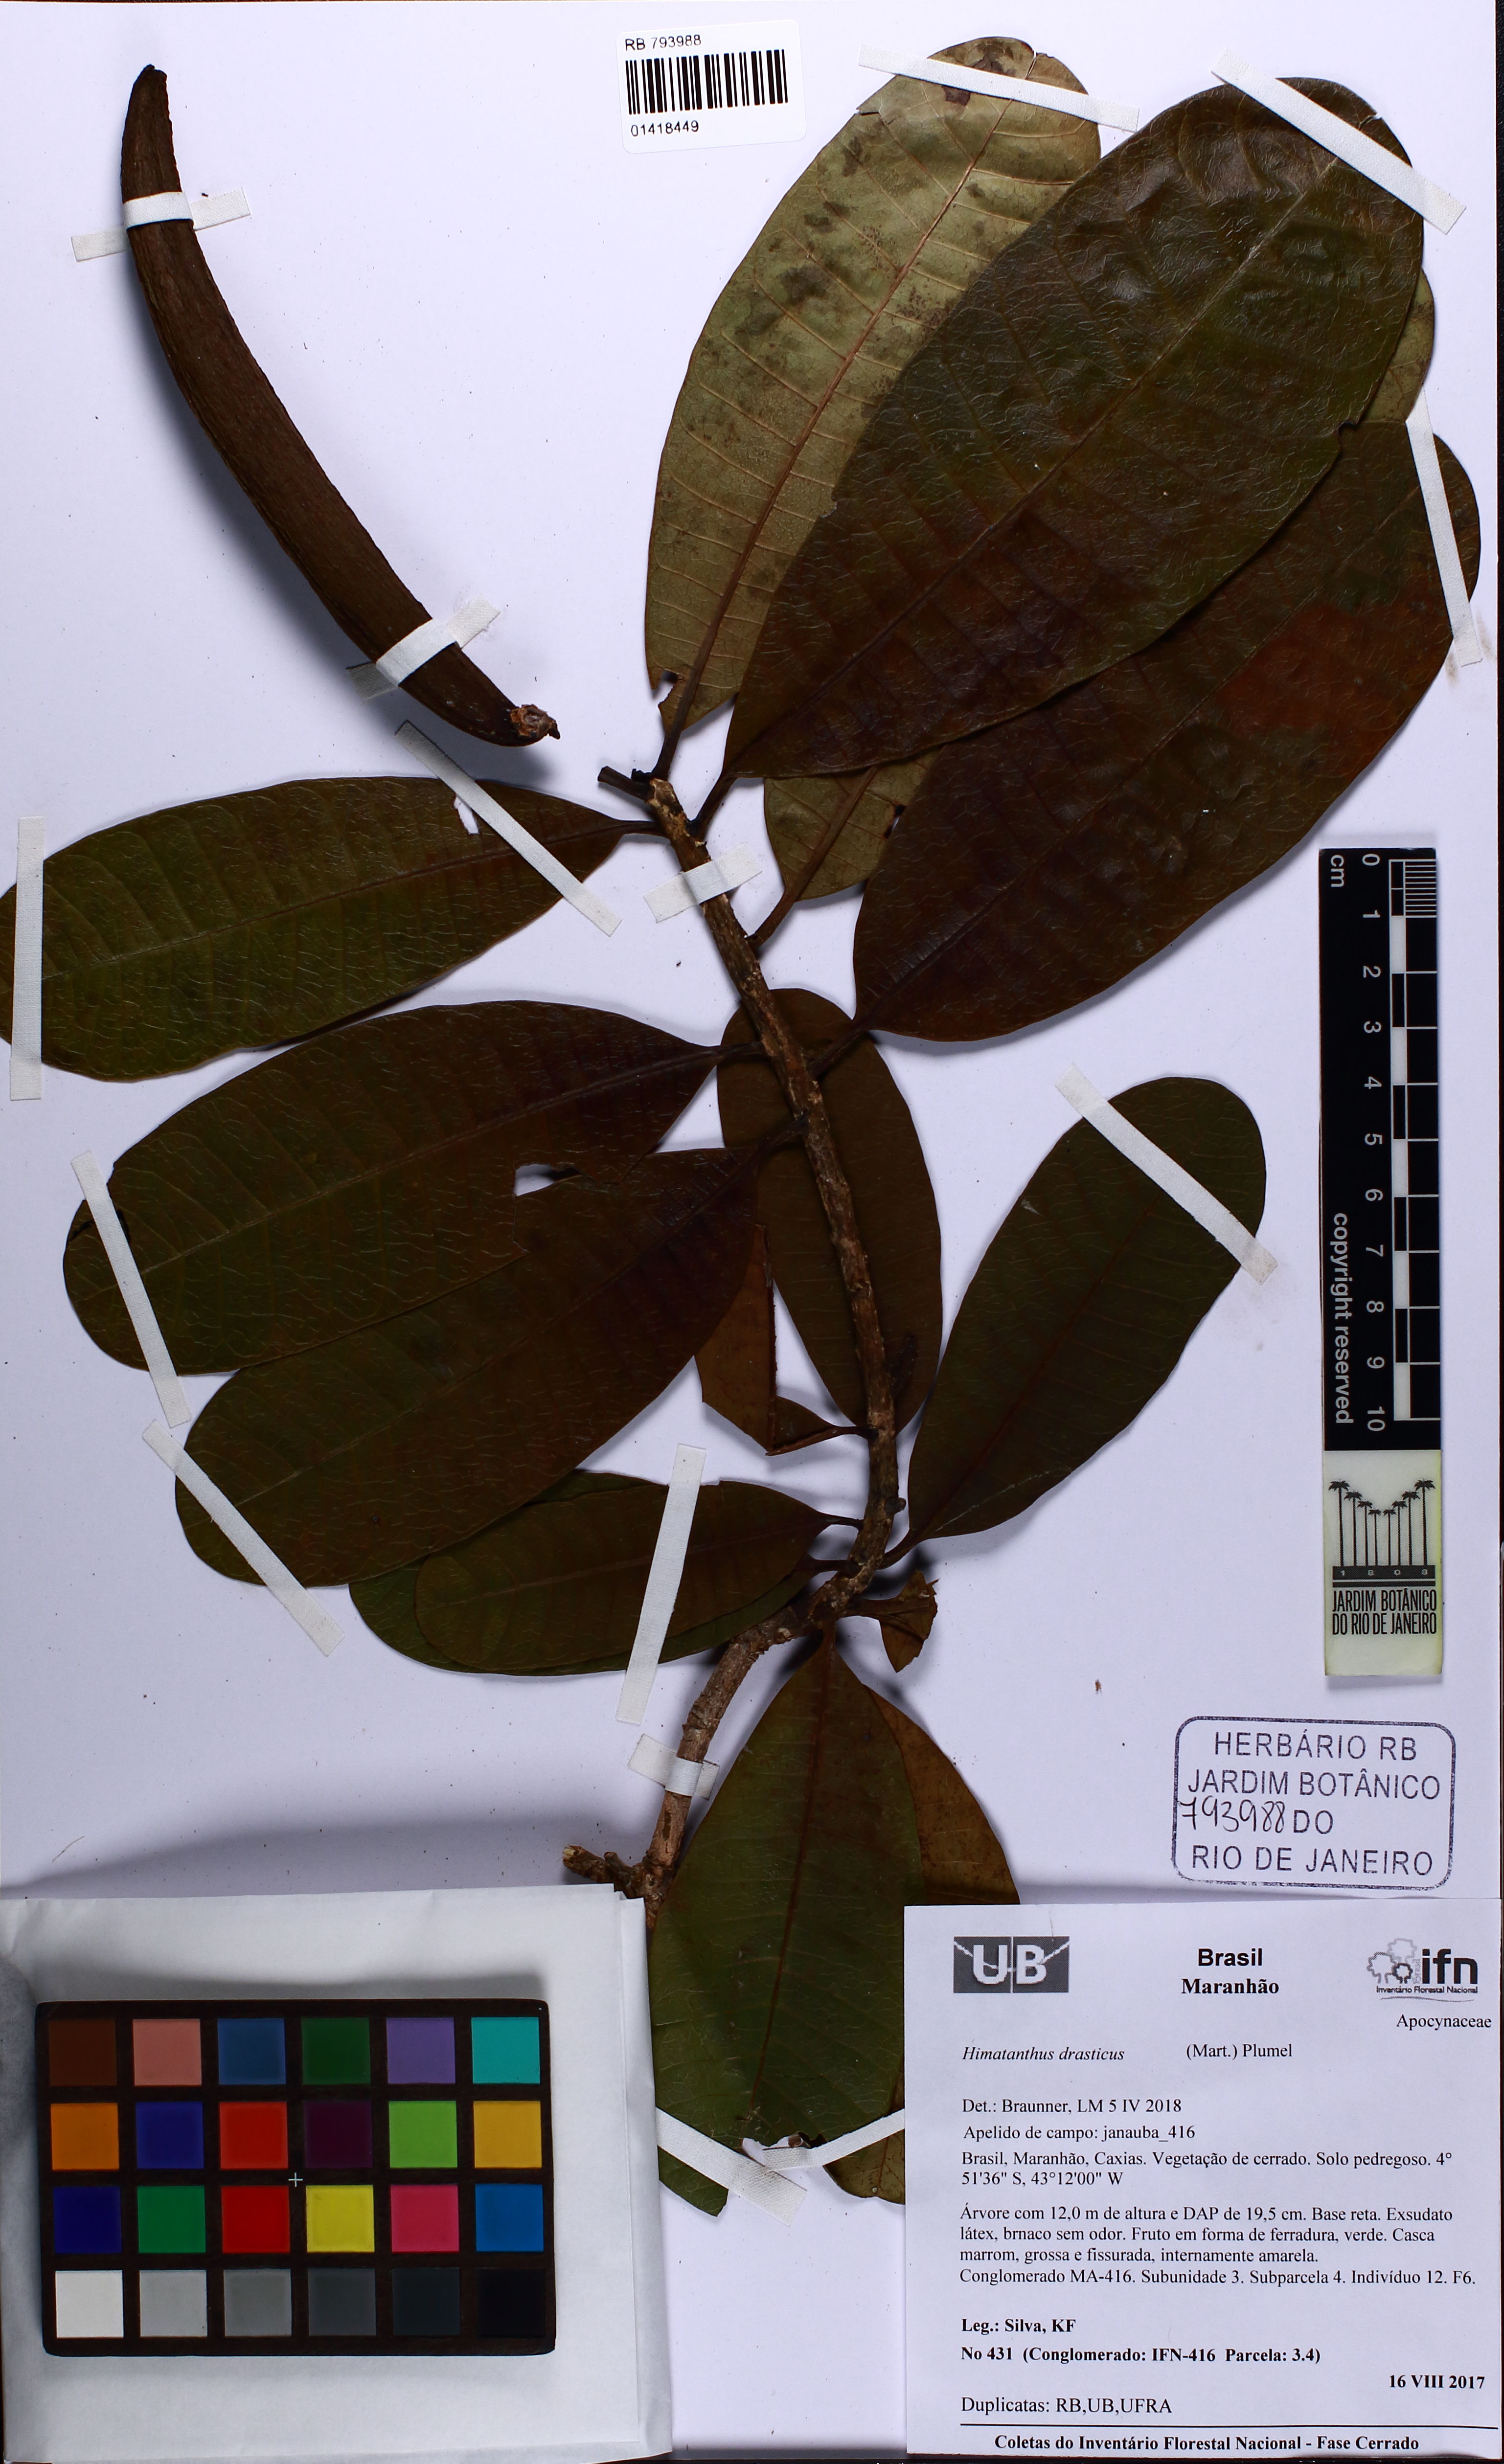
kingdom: Plantae
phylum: Tracheophyta
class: Magnoliopsida
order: Gentianales
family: Apocynaceae
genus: Himatanthus
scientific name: Himatanthus drasticus
